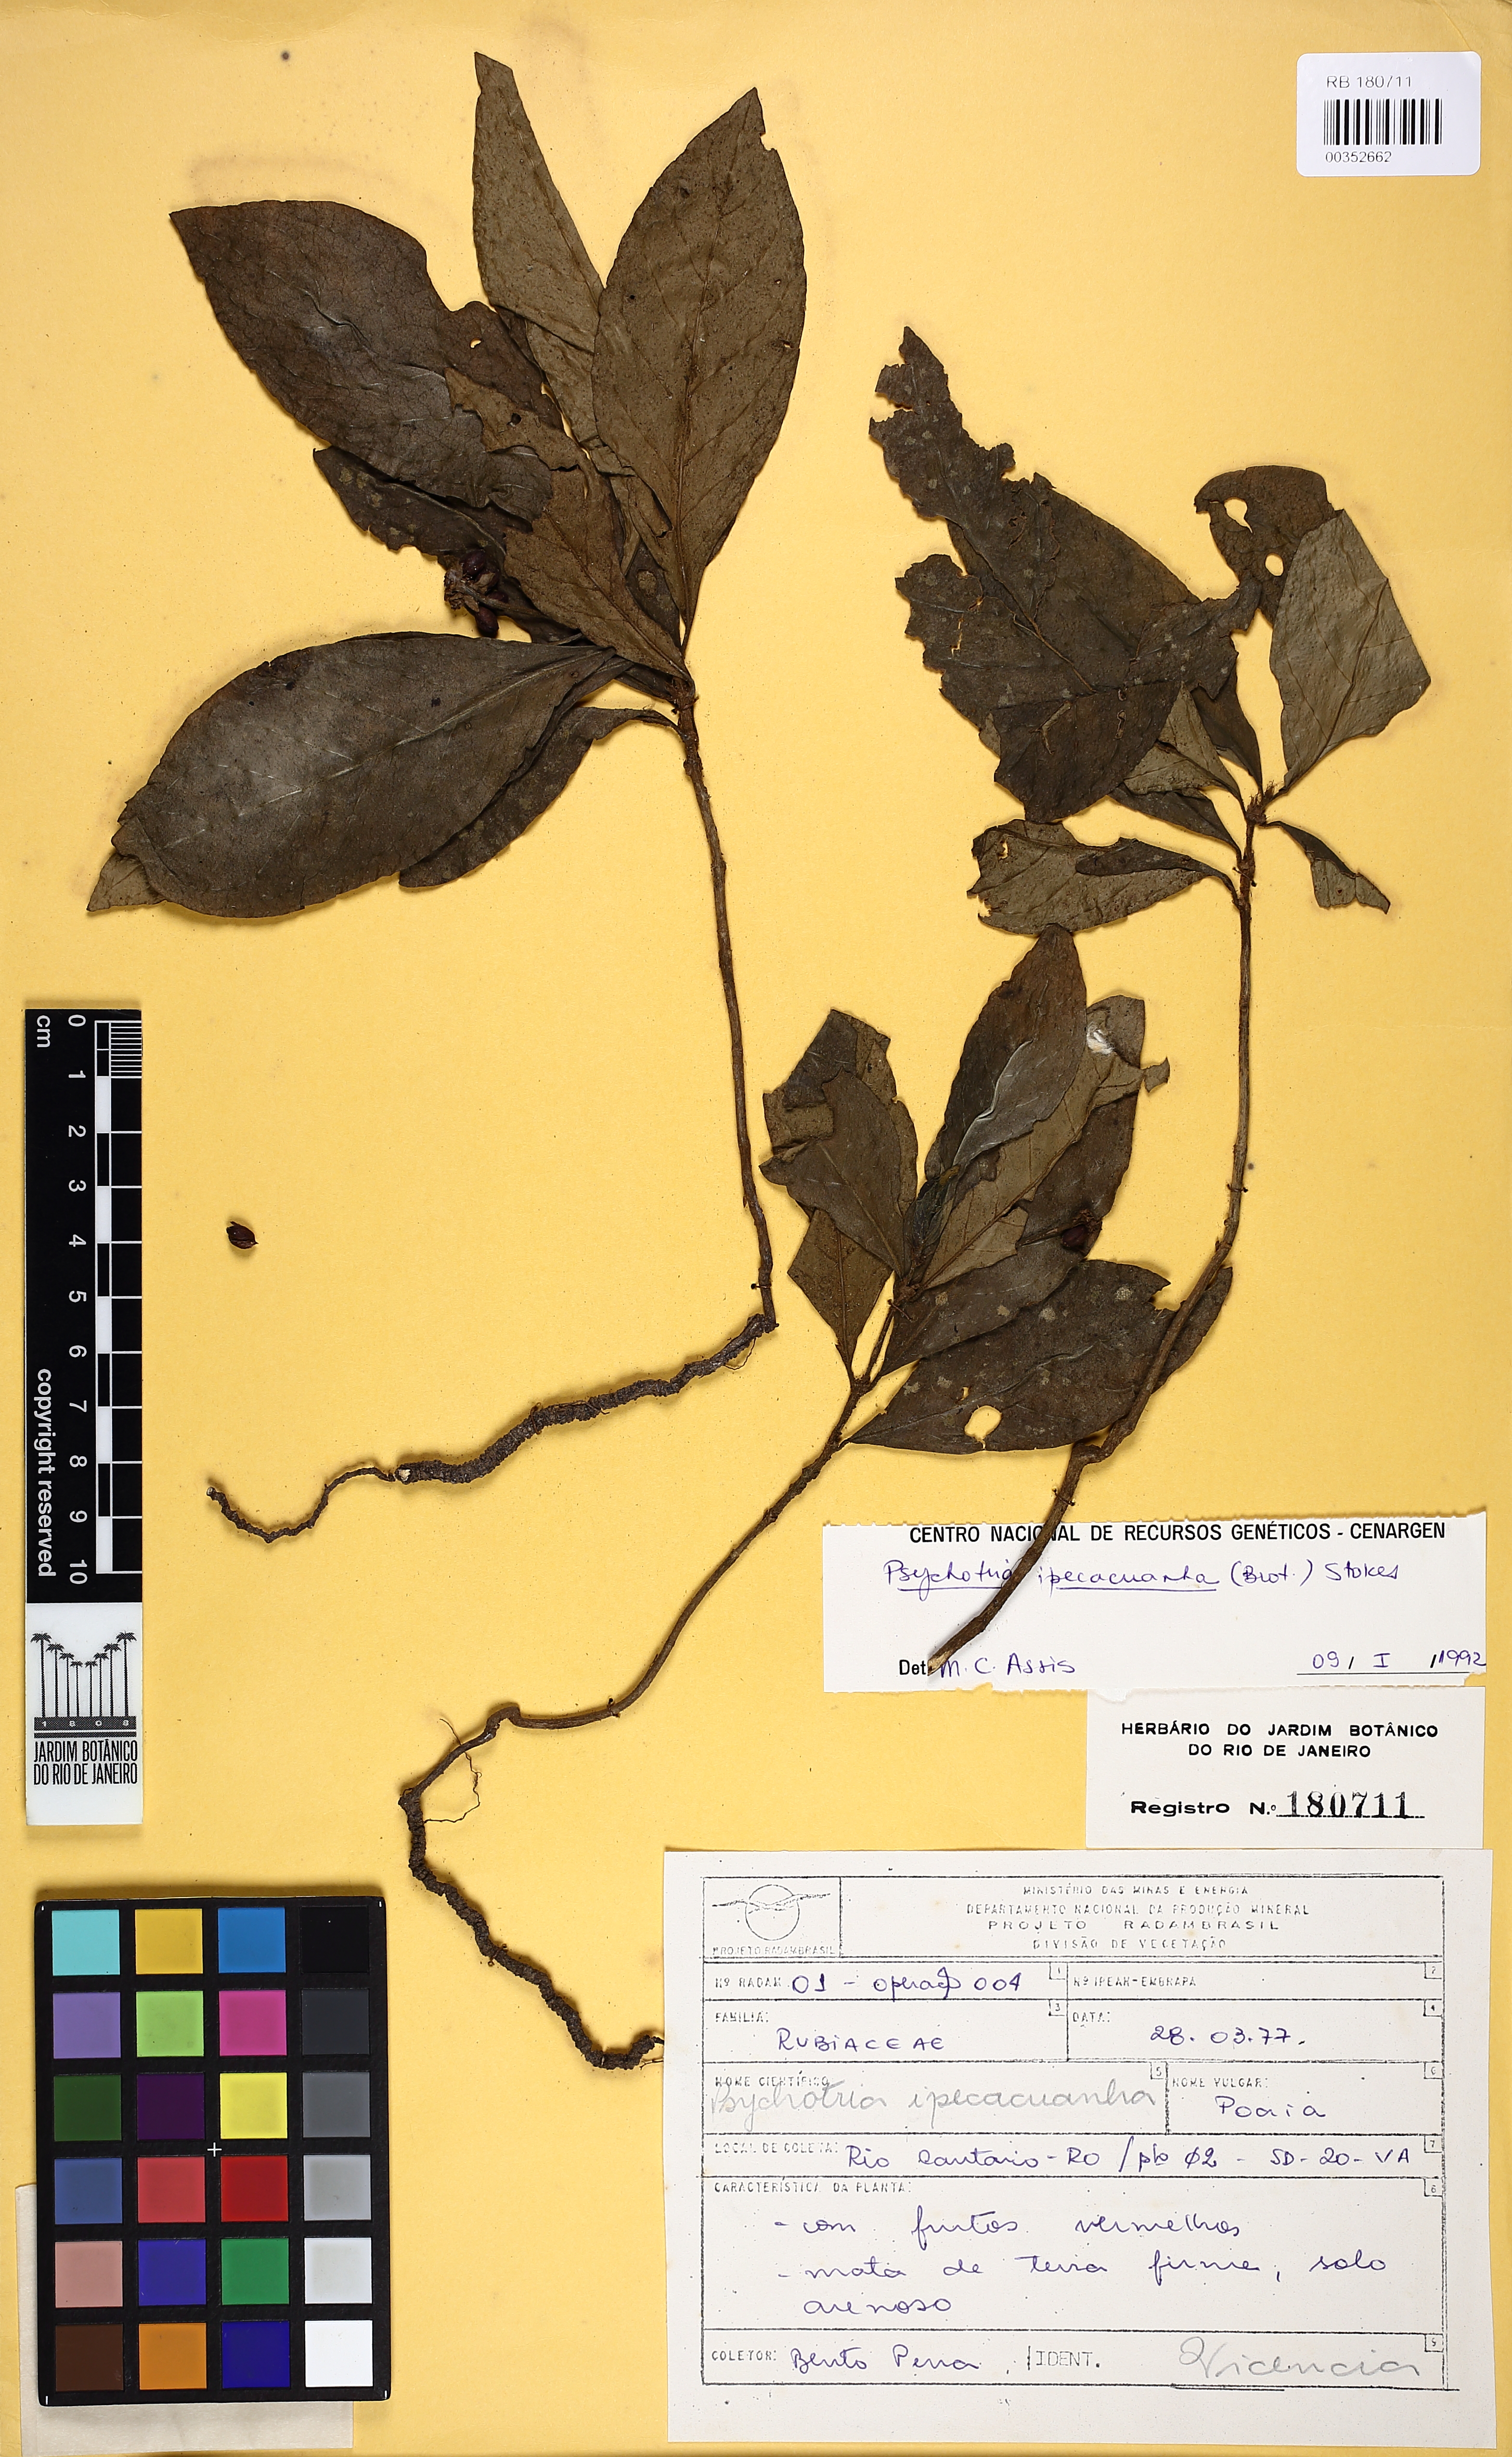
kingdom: Plantae
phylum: Tracheophyta
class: Magnoliopsida
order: Gentianales
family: Rubiaceae
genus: Carapichea
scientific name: Carapichea ipecacuanha
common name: Ipecac
